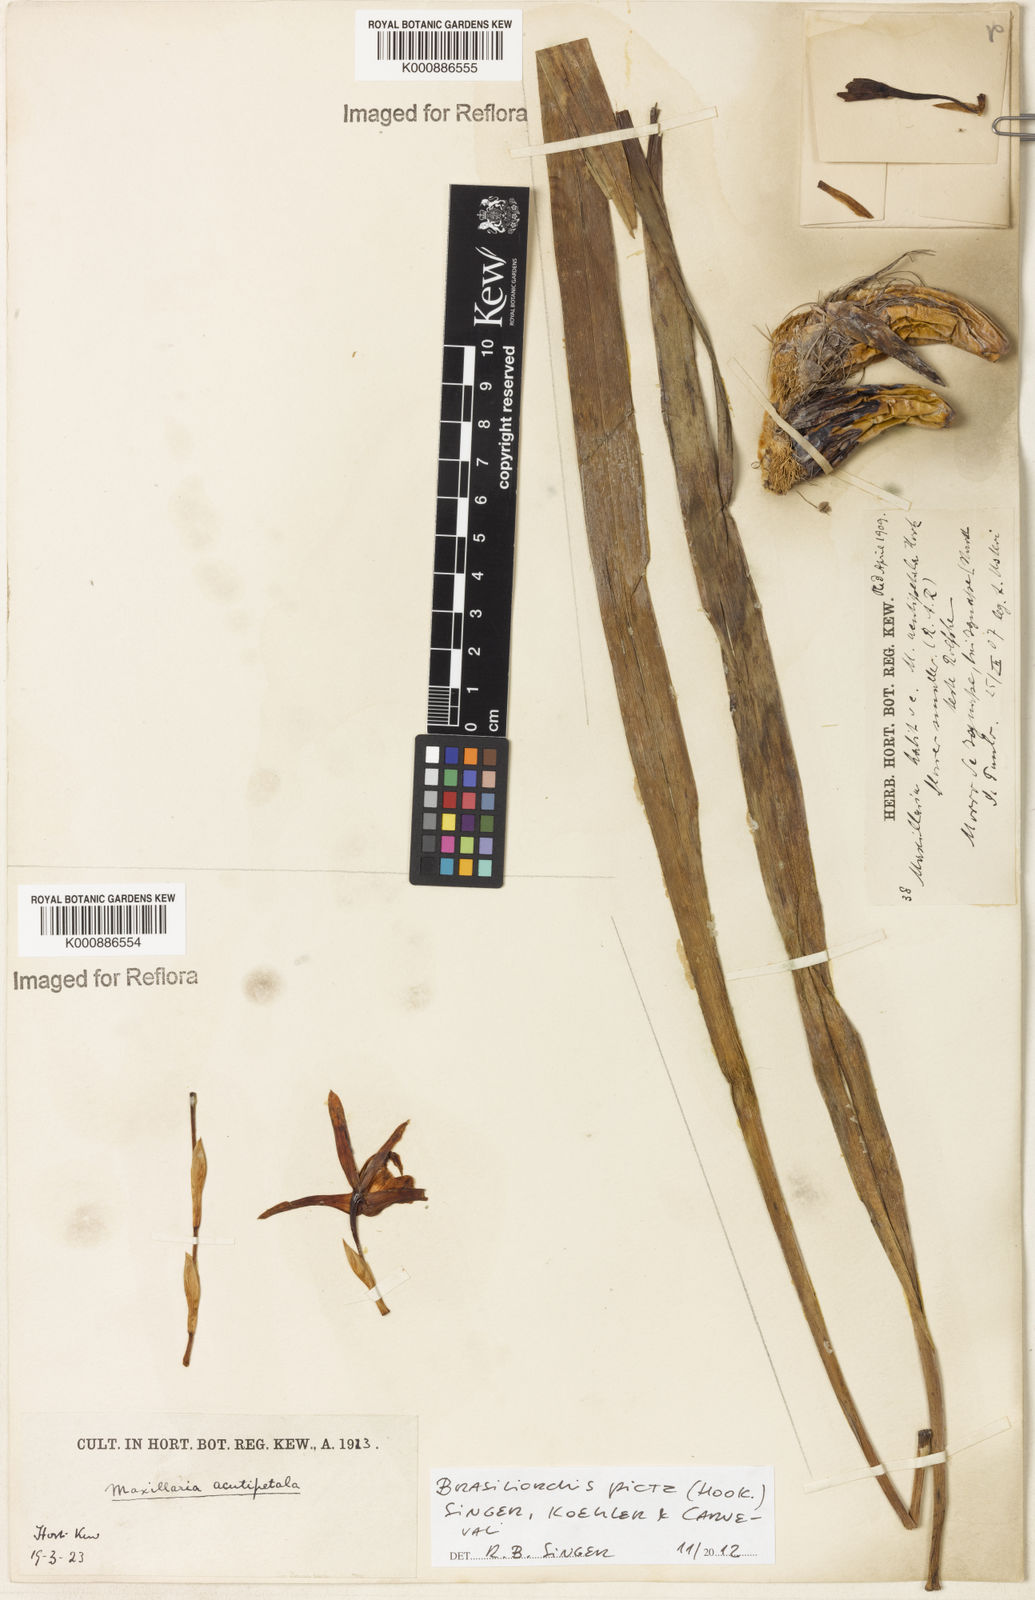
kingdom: Plantae
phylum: Tracheophyta
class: Liliopsida
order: Asparagales
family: Orchidaceae
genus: Maxillaria
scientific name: Maxillaria picta
